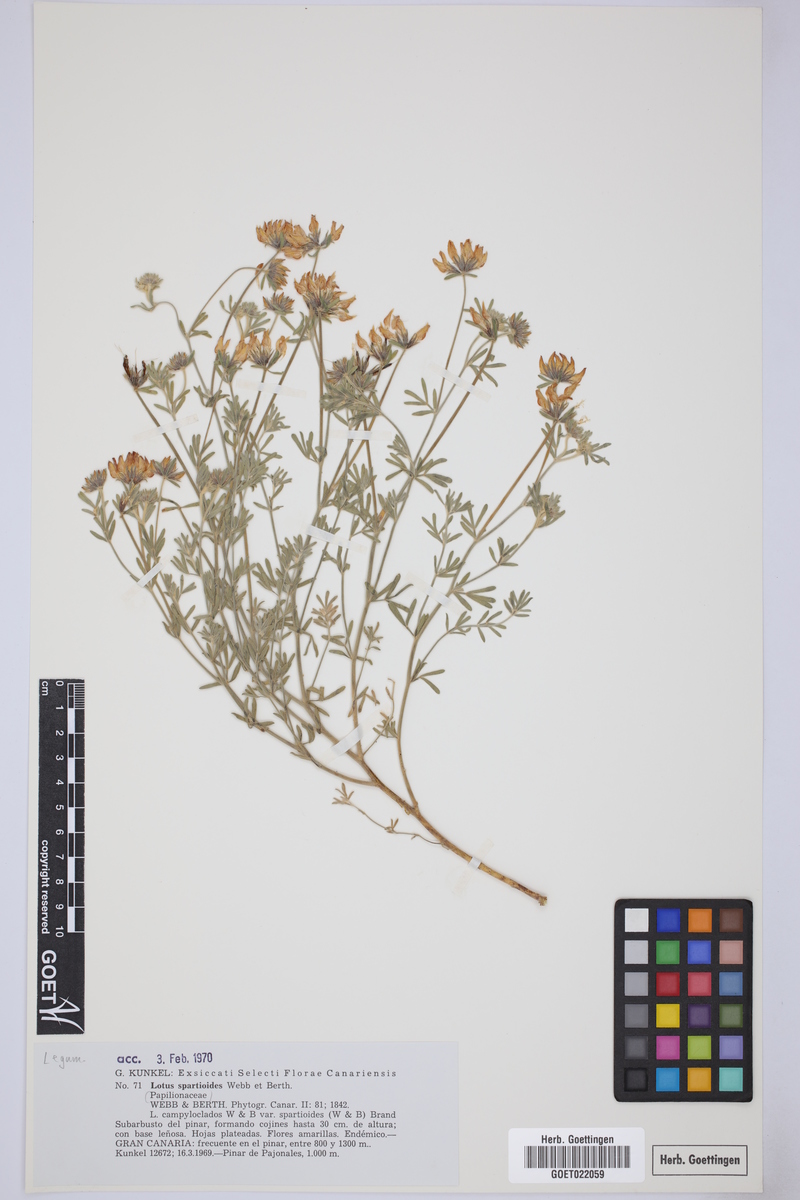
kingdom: Plantae
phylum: Tracheophyta
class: Magnoliopsida
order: Fabales
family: Fabaceae
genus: Lotus
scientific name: Lotus spartioides
